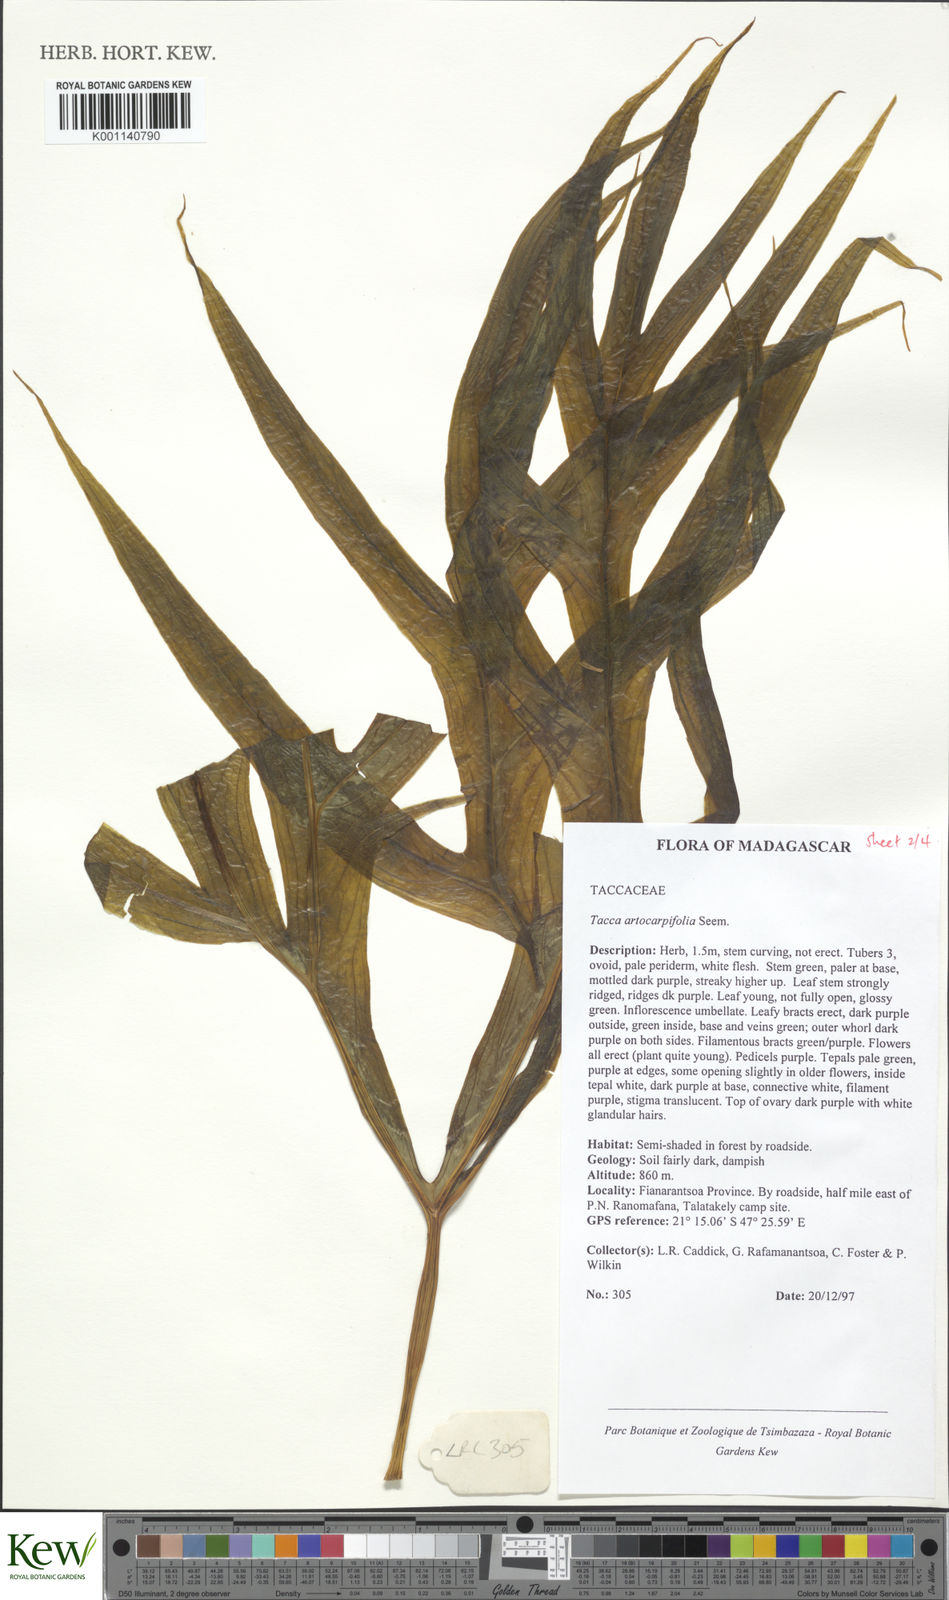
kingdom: Plantae
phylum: Tracheophyta
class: Liliopsida
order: Dioscoreales
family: Dioscoreaceae
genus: Tacca
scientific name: Tacca leontopetaloides
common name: Arrowroot
